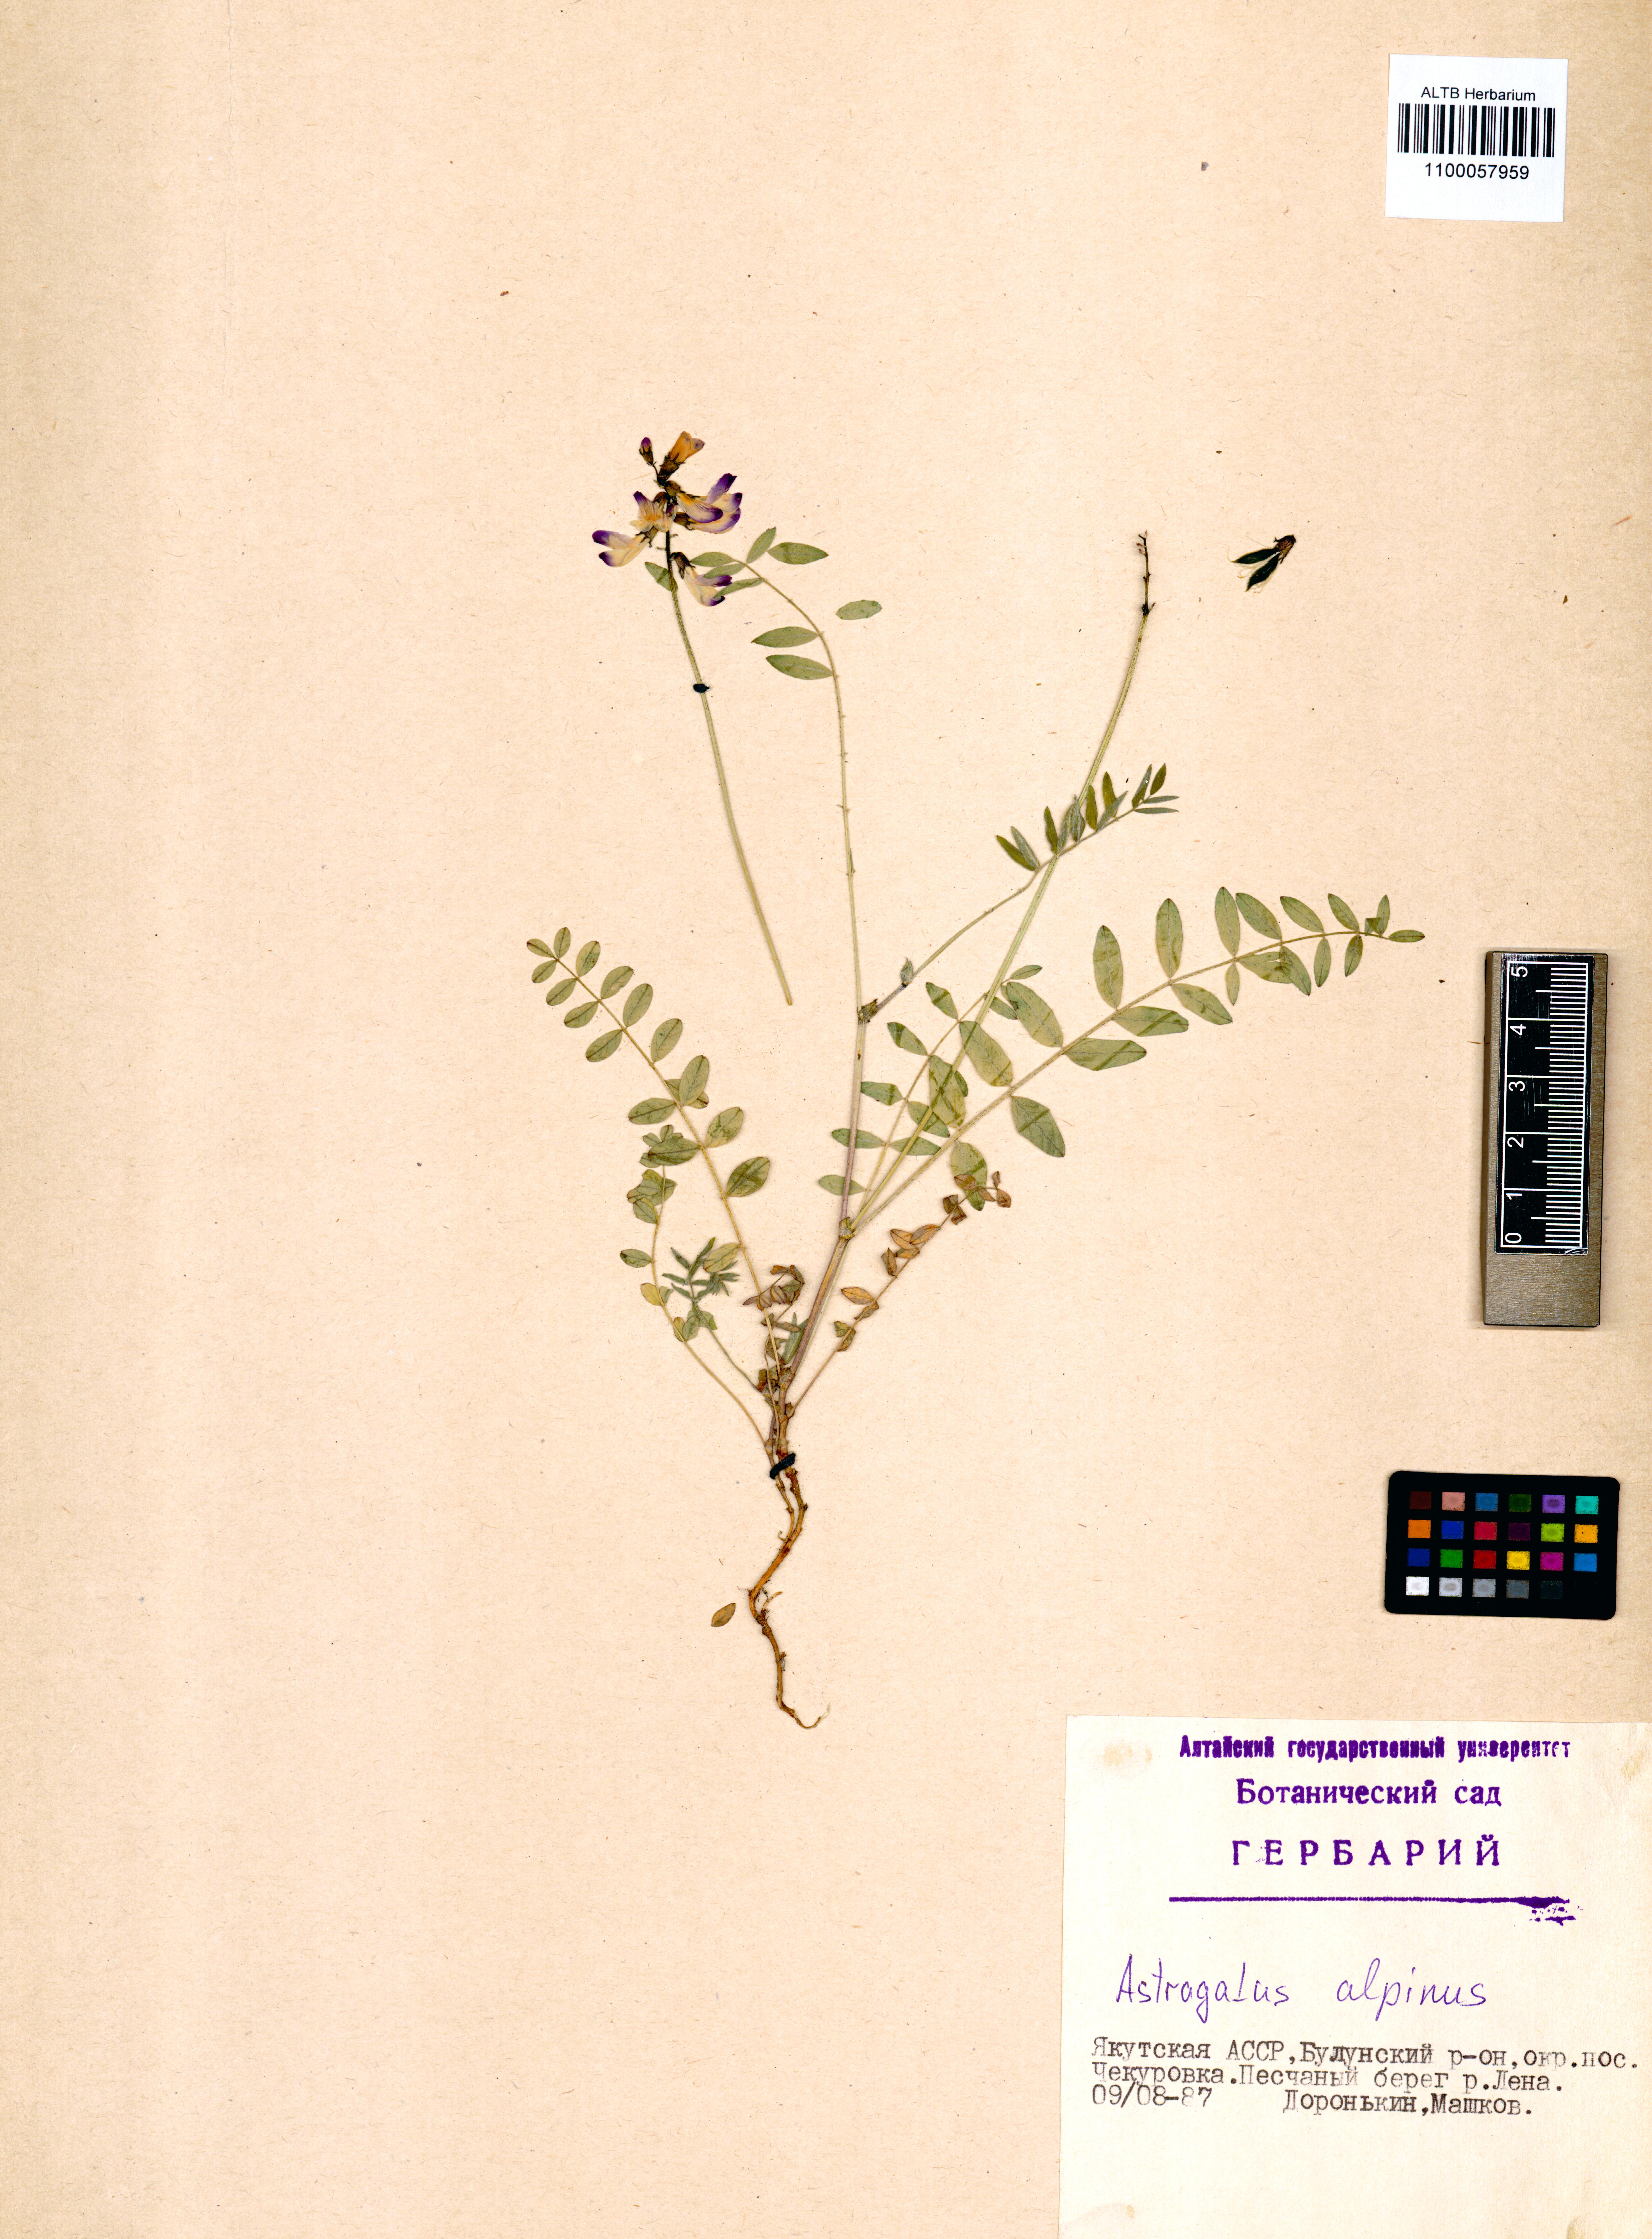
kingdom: Plantae
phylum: Tracheophyta
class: Magnoliopsida
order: Fabales
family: Fabaceae
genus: Astragalus
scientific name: Astragalus alpinus
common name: Alpine milk-vetch
